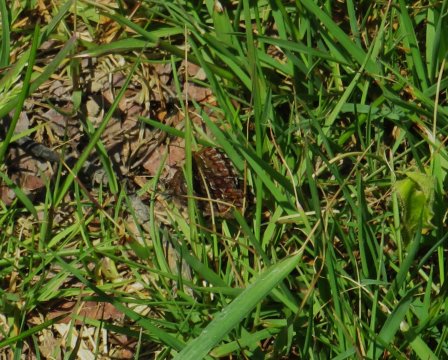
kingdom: Animalia
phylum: Arthropoda
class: Insecta
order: Lepidoptera
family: Lycaenidae
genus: Incisalia
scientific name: Incisalia niphon
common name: Eastern Pine Elfin
